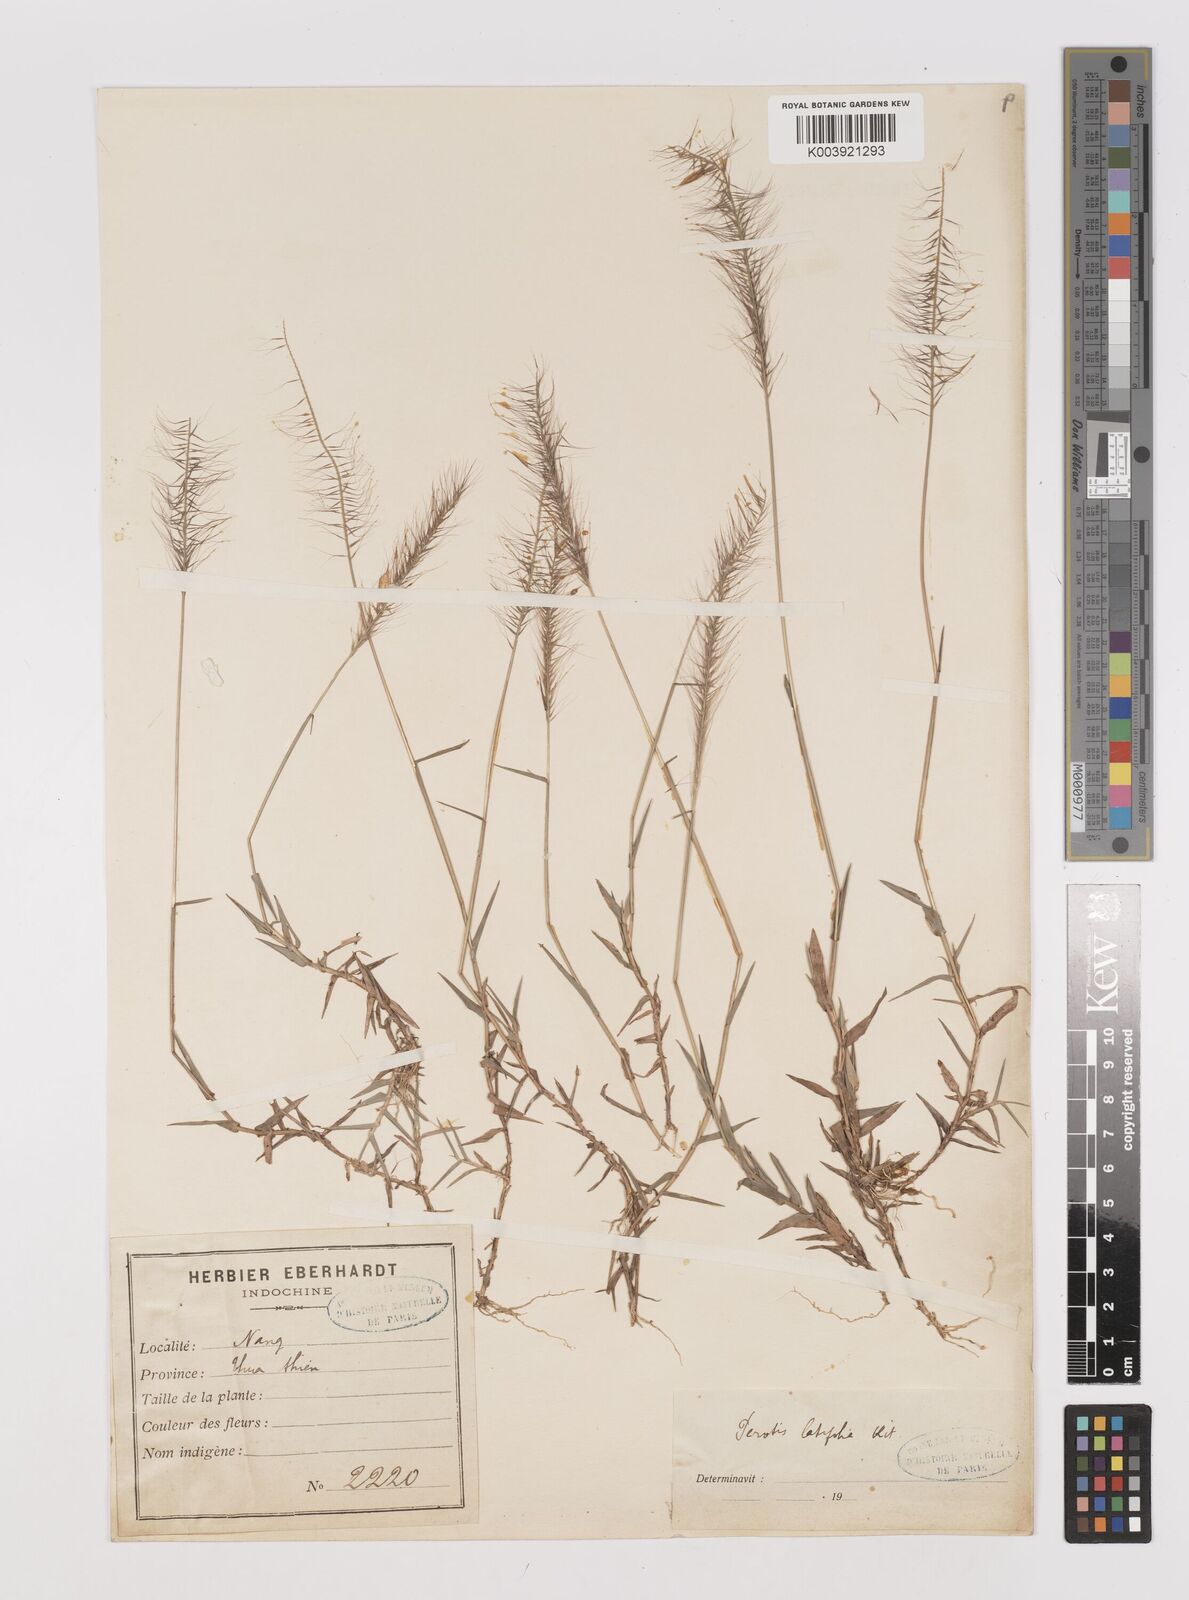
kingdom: Plantae
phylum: Tracheophyta
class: Liliopsida
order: Poales
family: Poaceae
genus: Perotis
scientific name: Perotis rara
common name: Comet grass
